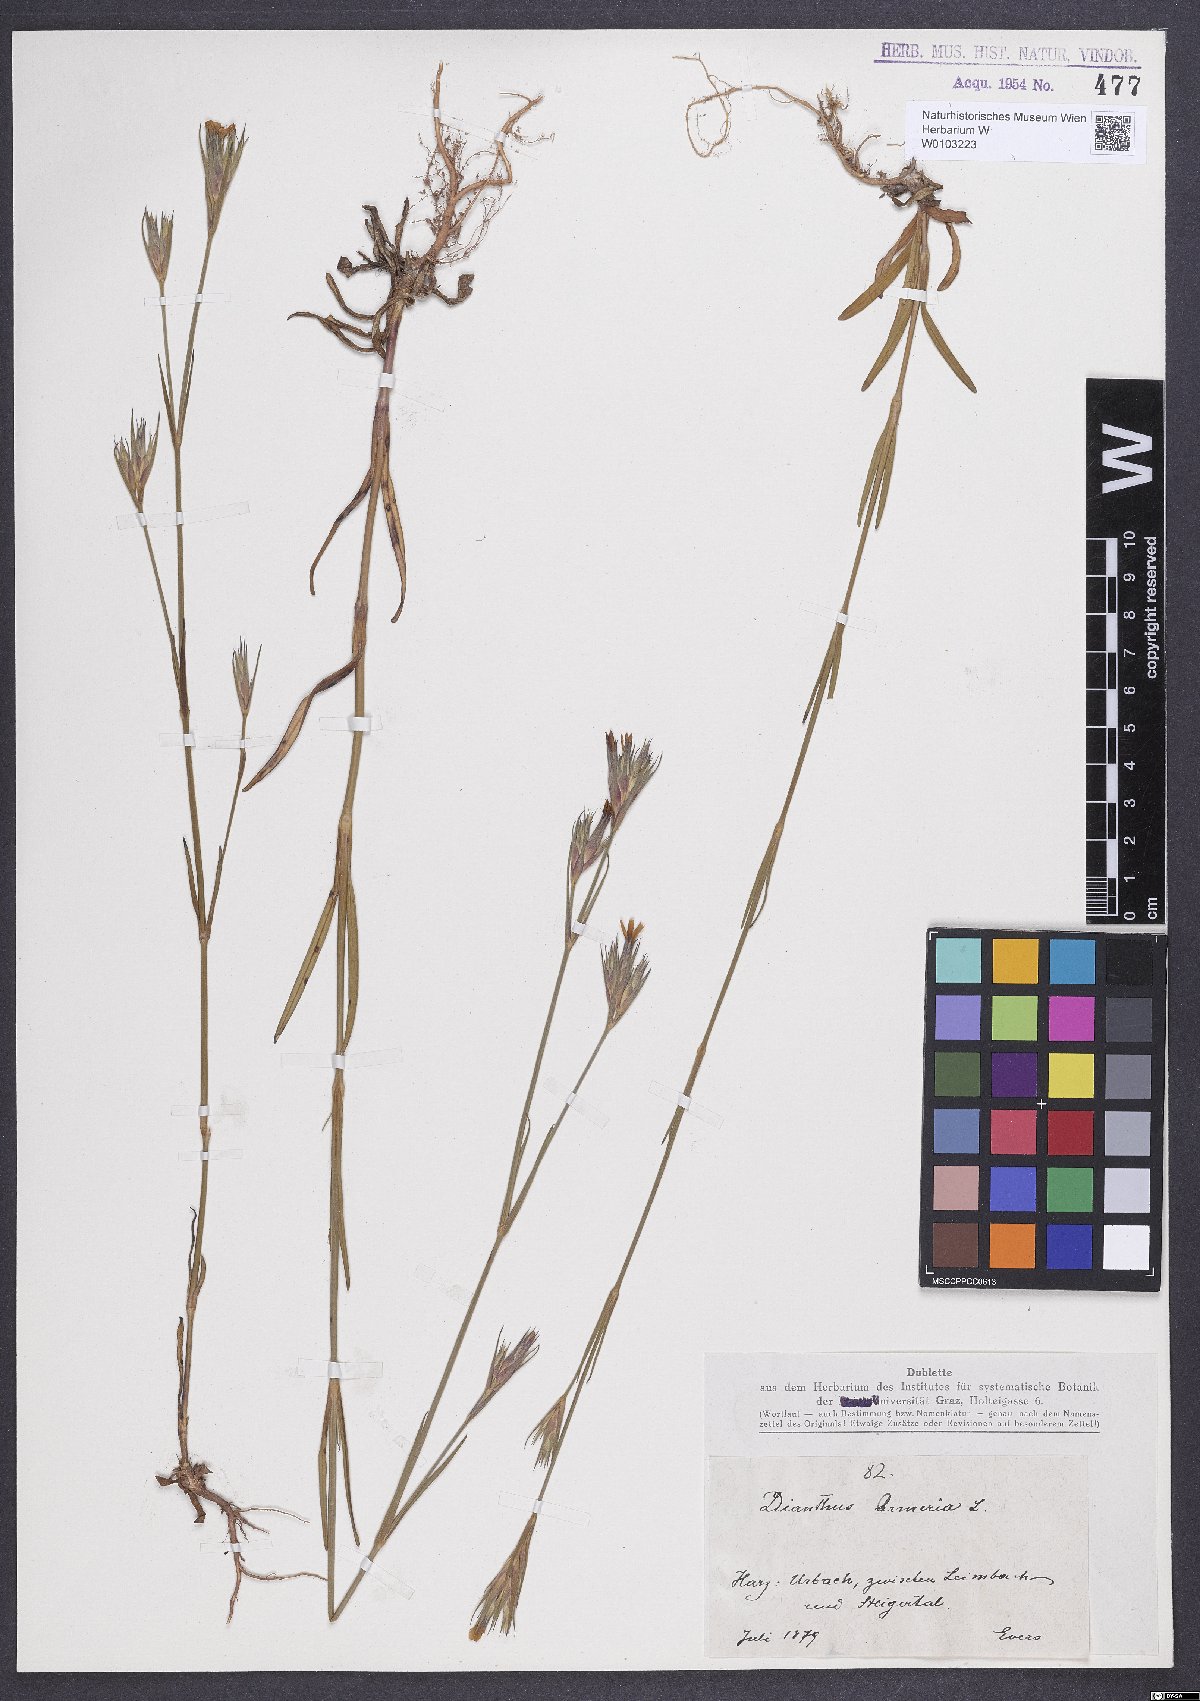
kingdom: Plantae
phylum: Tracheophyta
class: Magnoliopsida
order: Caryophyllales
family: Caryophyllaceae
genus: Dianthus
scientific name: Dianthus armeria
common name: Deptford pink
